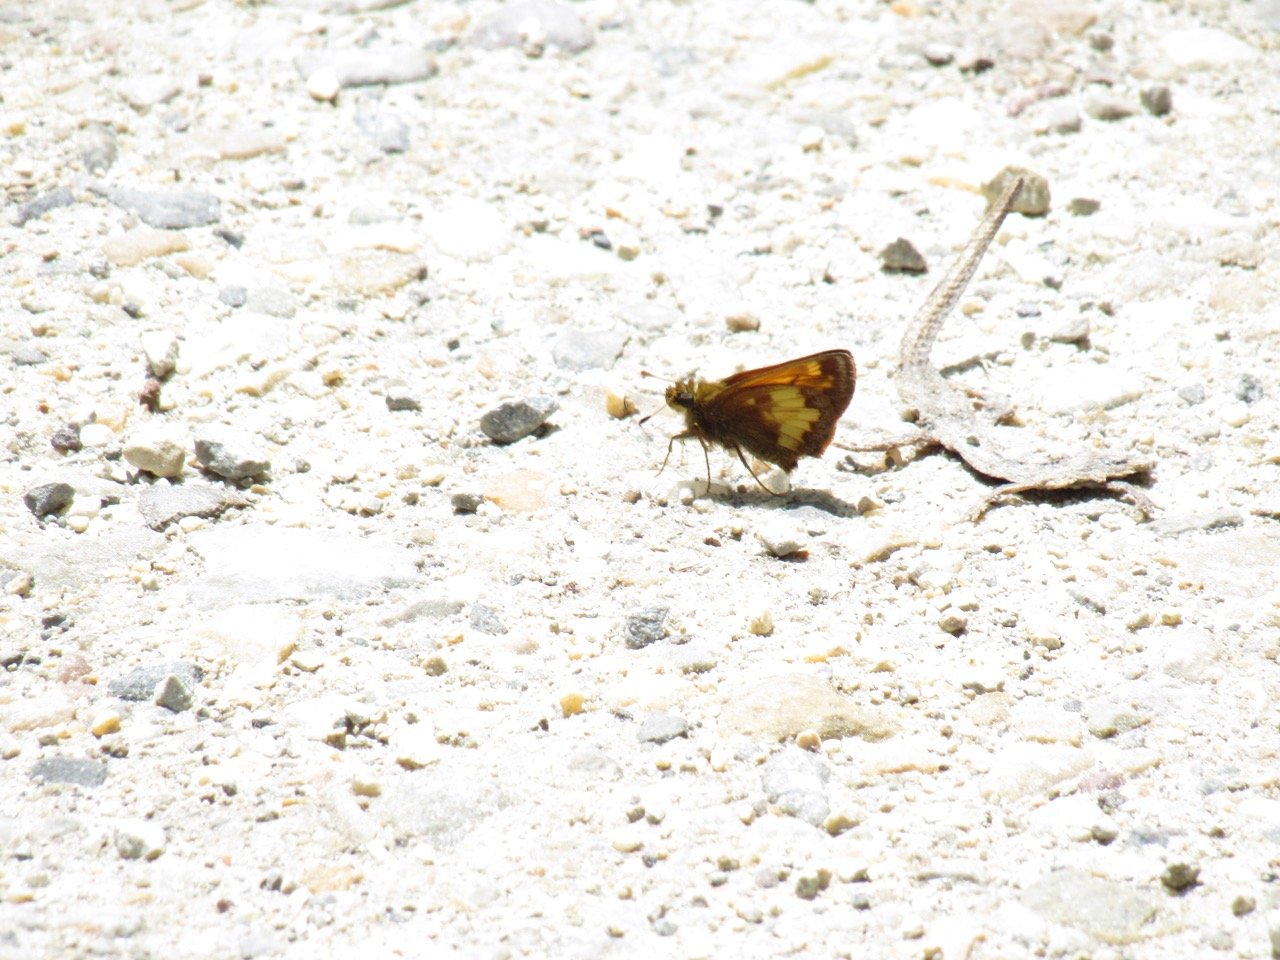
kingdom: Animalia
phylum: Arthropoda
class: Insecta
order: Lepidoptera
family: Hesperiidae
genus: Lon
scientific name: Lon hobomok
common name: Hobomok Skipper
